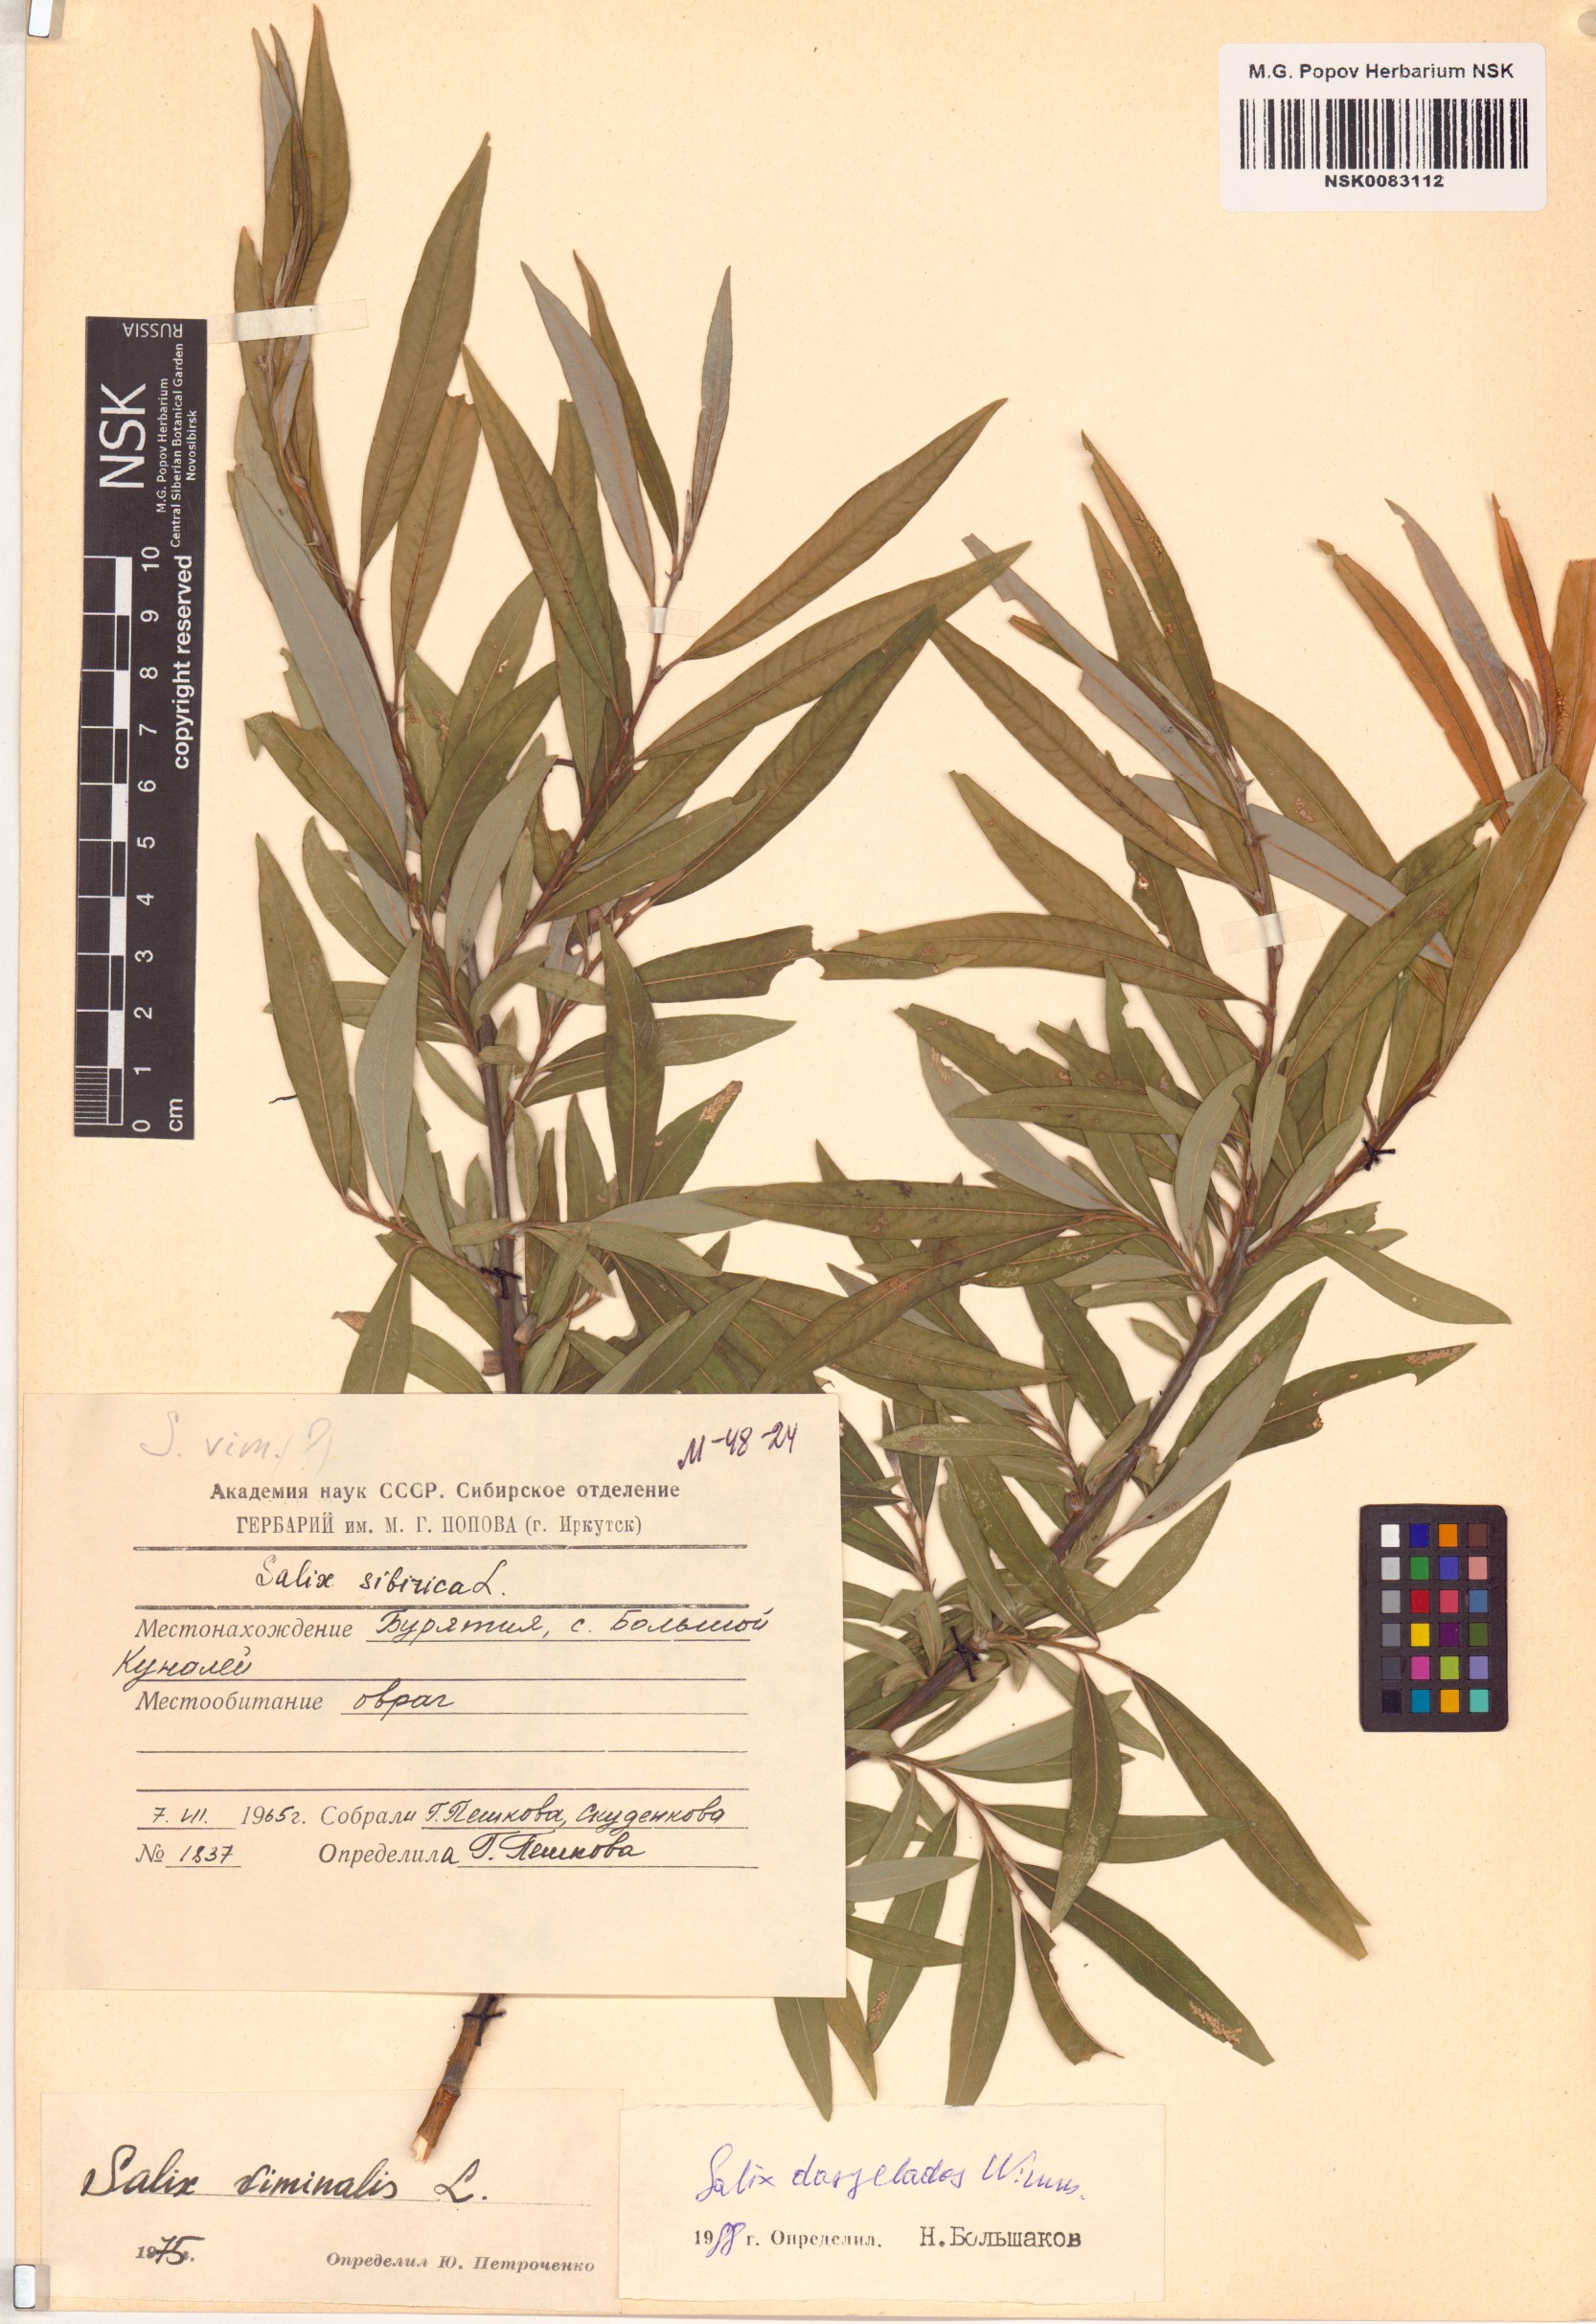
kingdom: Plantae
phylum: Tracheophyta
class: Magnoliopsida
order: Malpighiales
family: Salicaceae
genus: Salix
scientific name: Salix gmelinii
